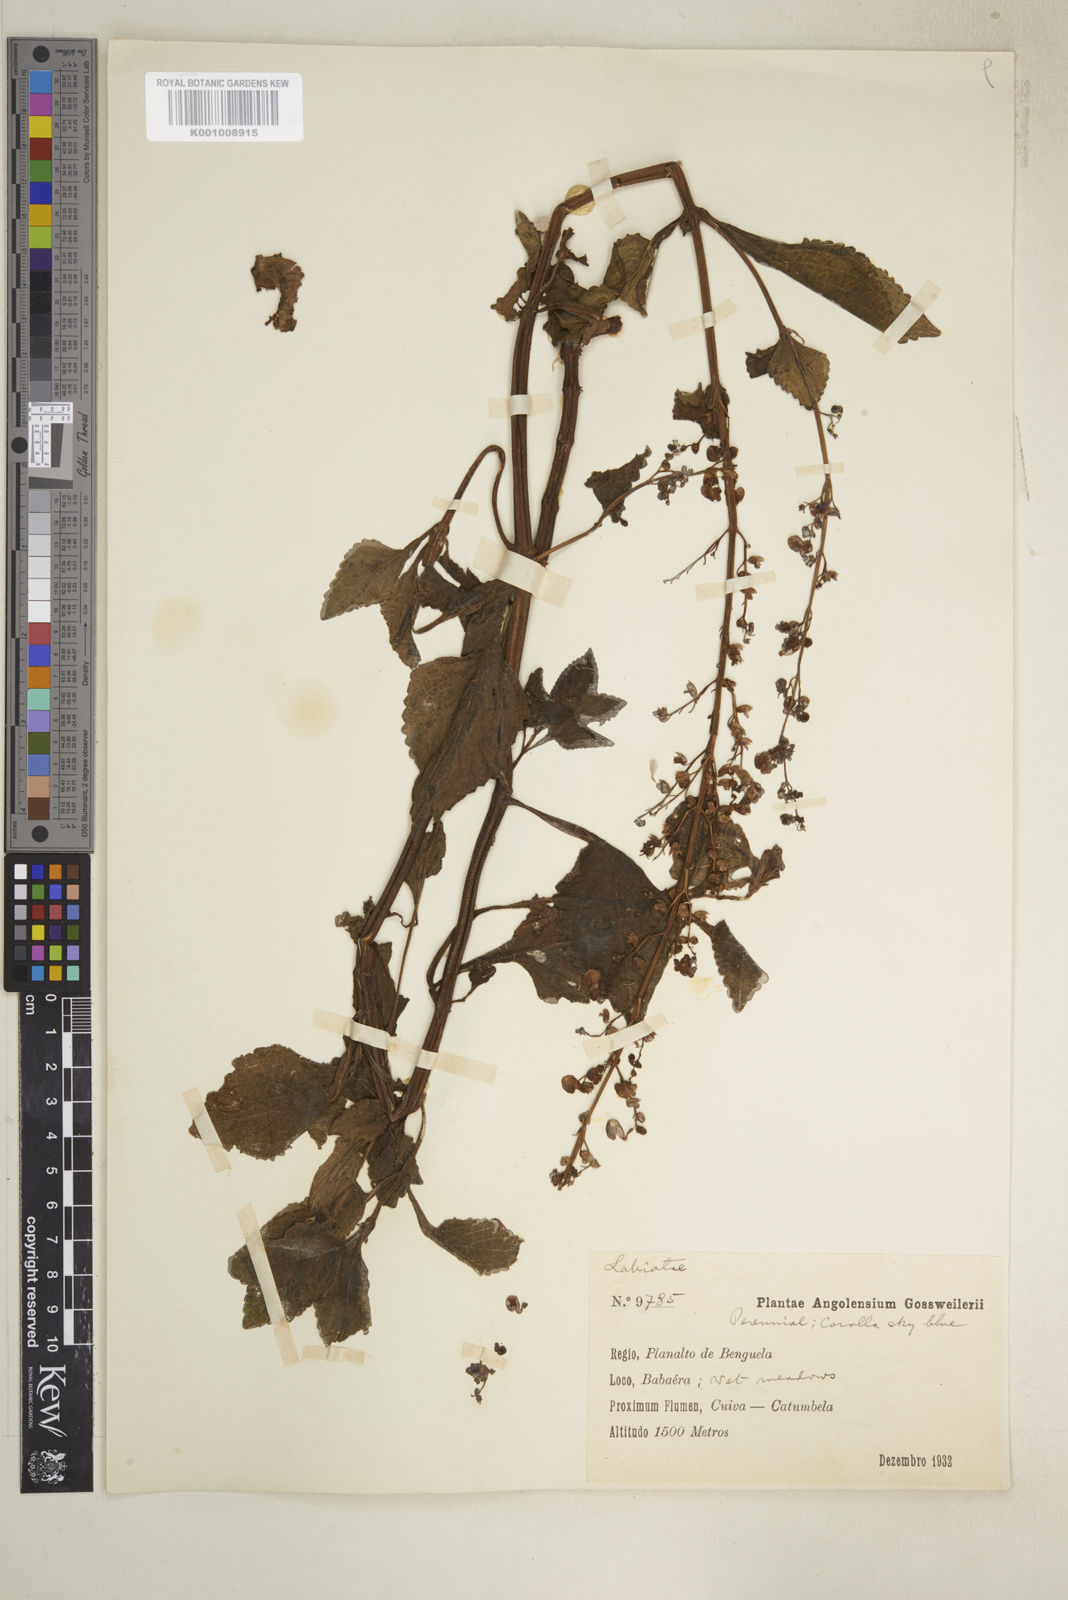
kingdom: Plantae
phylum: Tracheophyta
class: Magnoliopsida
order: Lamiales
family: Lamiaceae
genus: Coleus
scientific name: Coleus tenuicaulis
